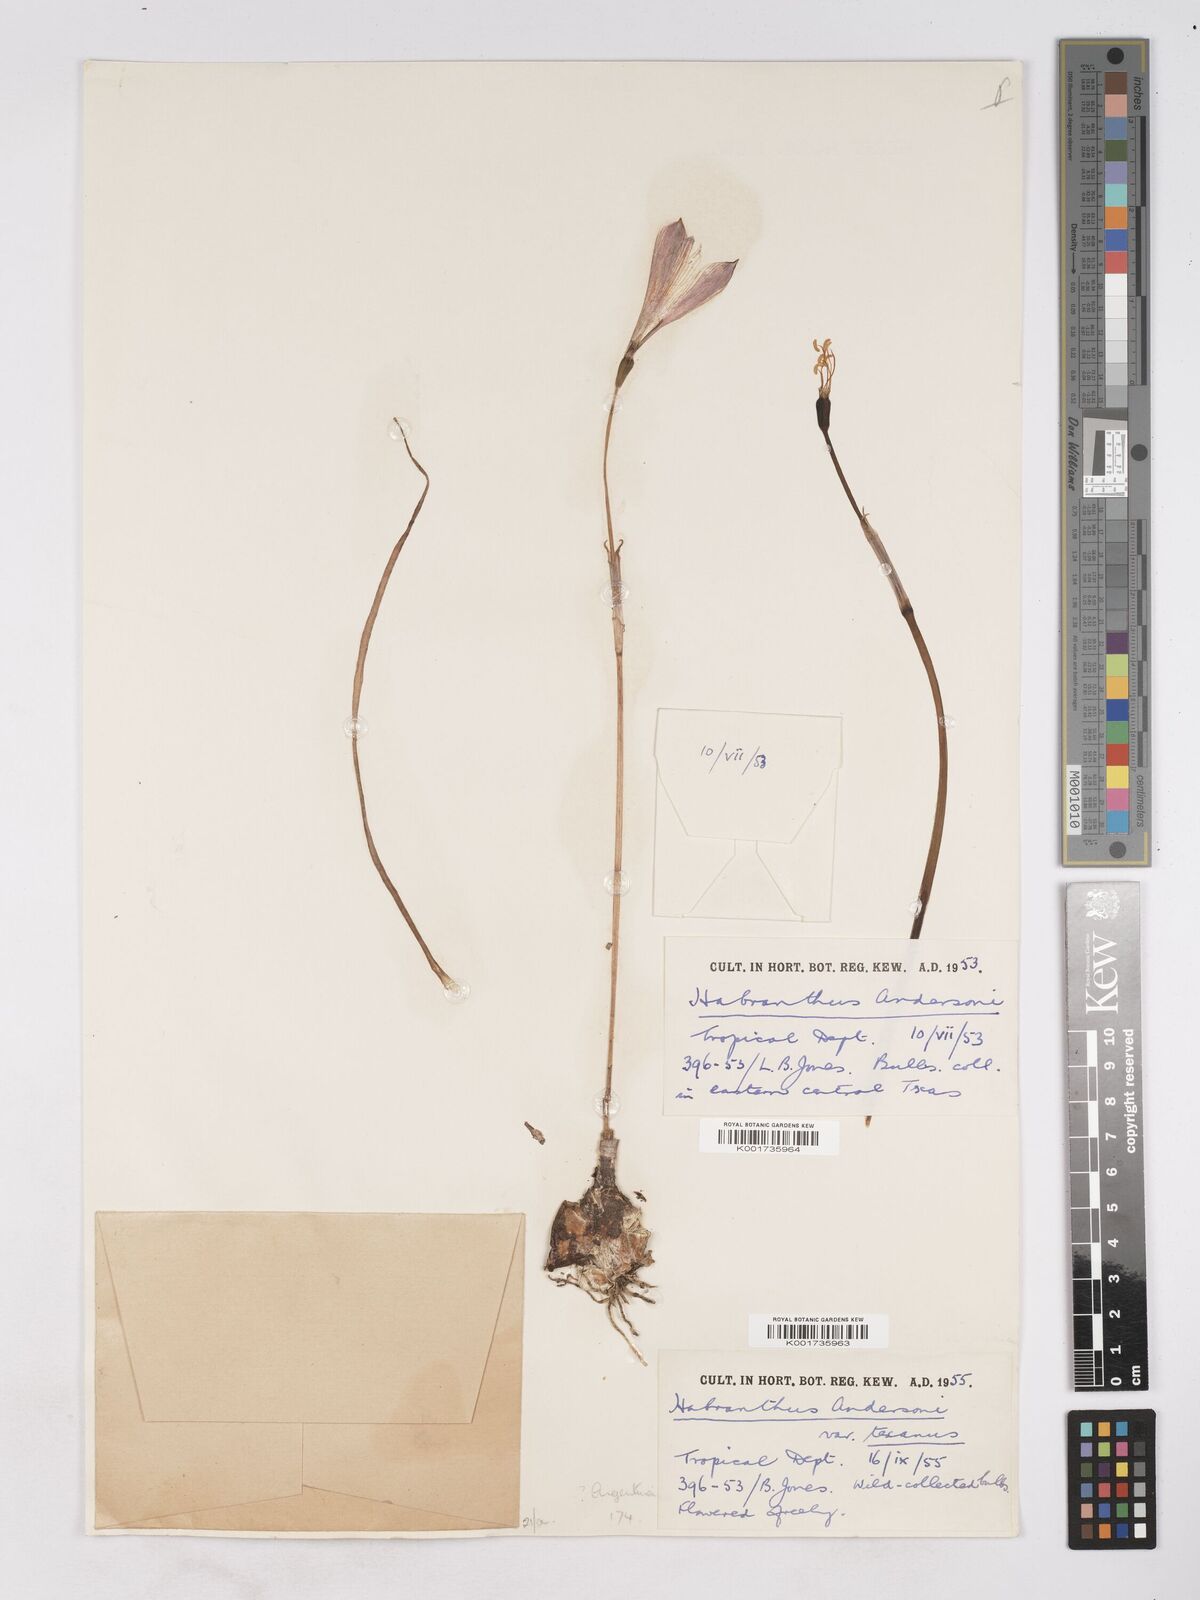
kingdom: Plantae
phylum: Tracheophyta
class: Liliopsida
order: Asparagales
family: Amaryllidaceae
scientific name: Amaryllidaceae
